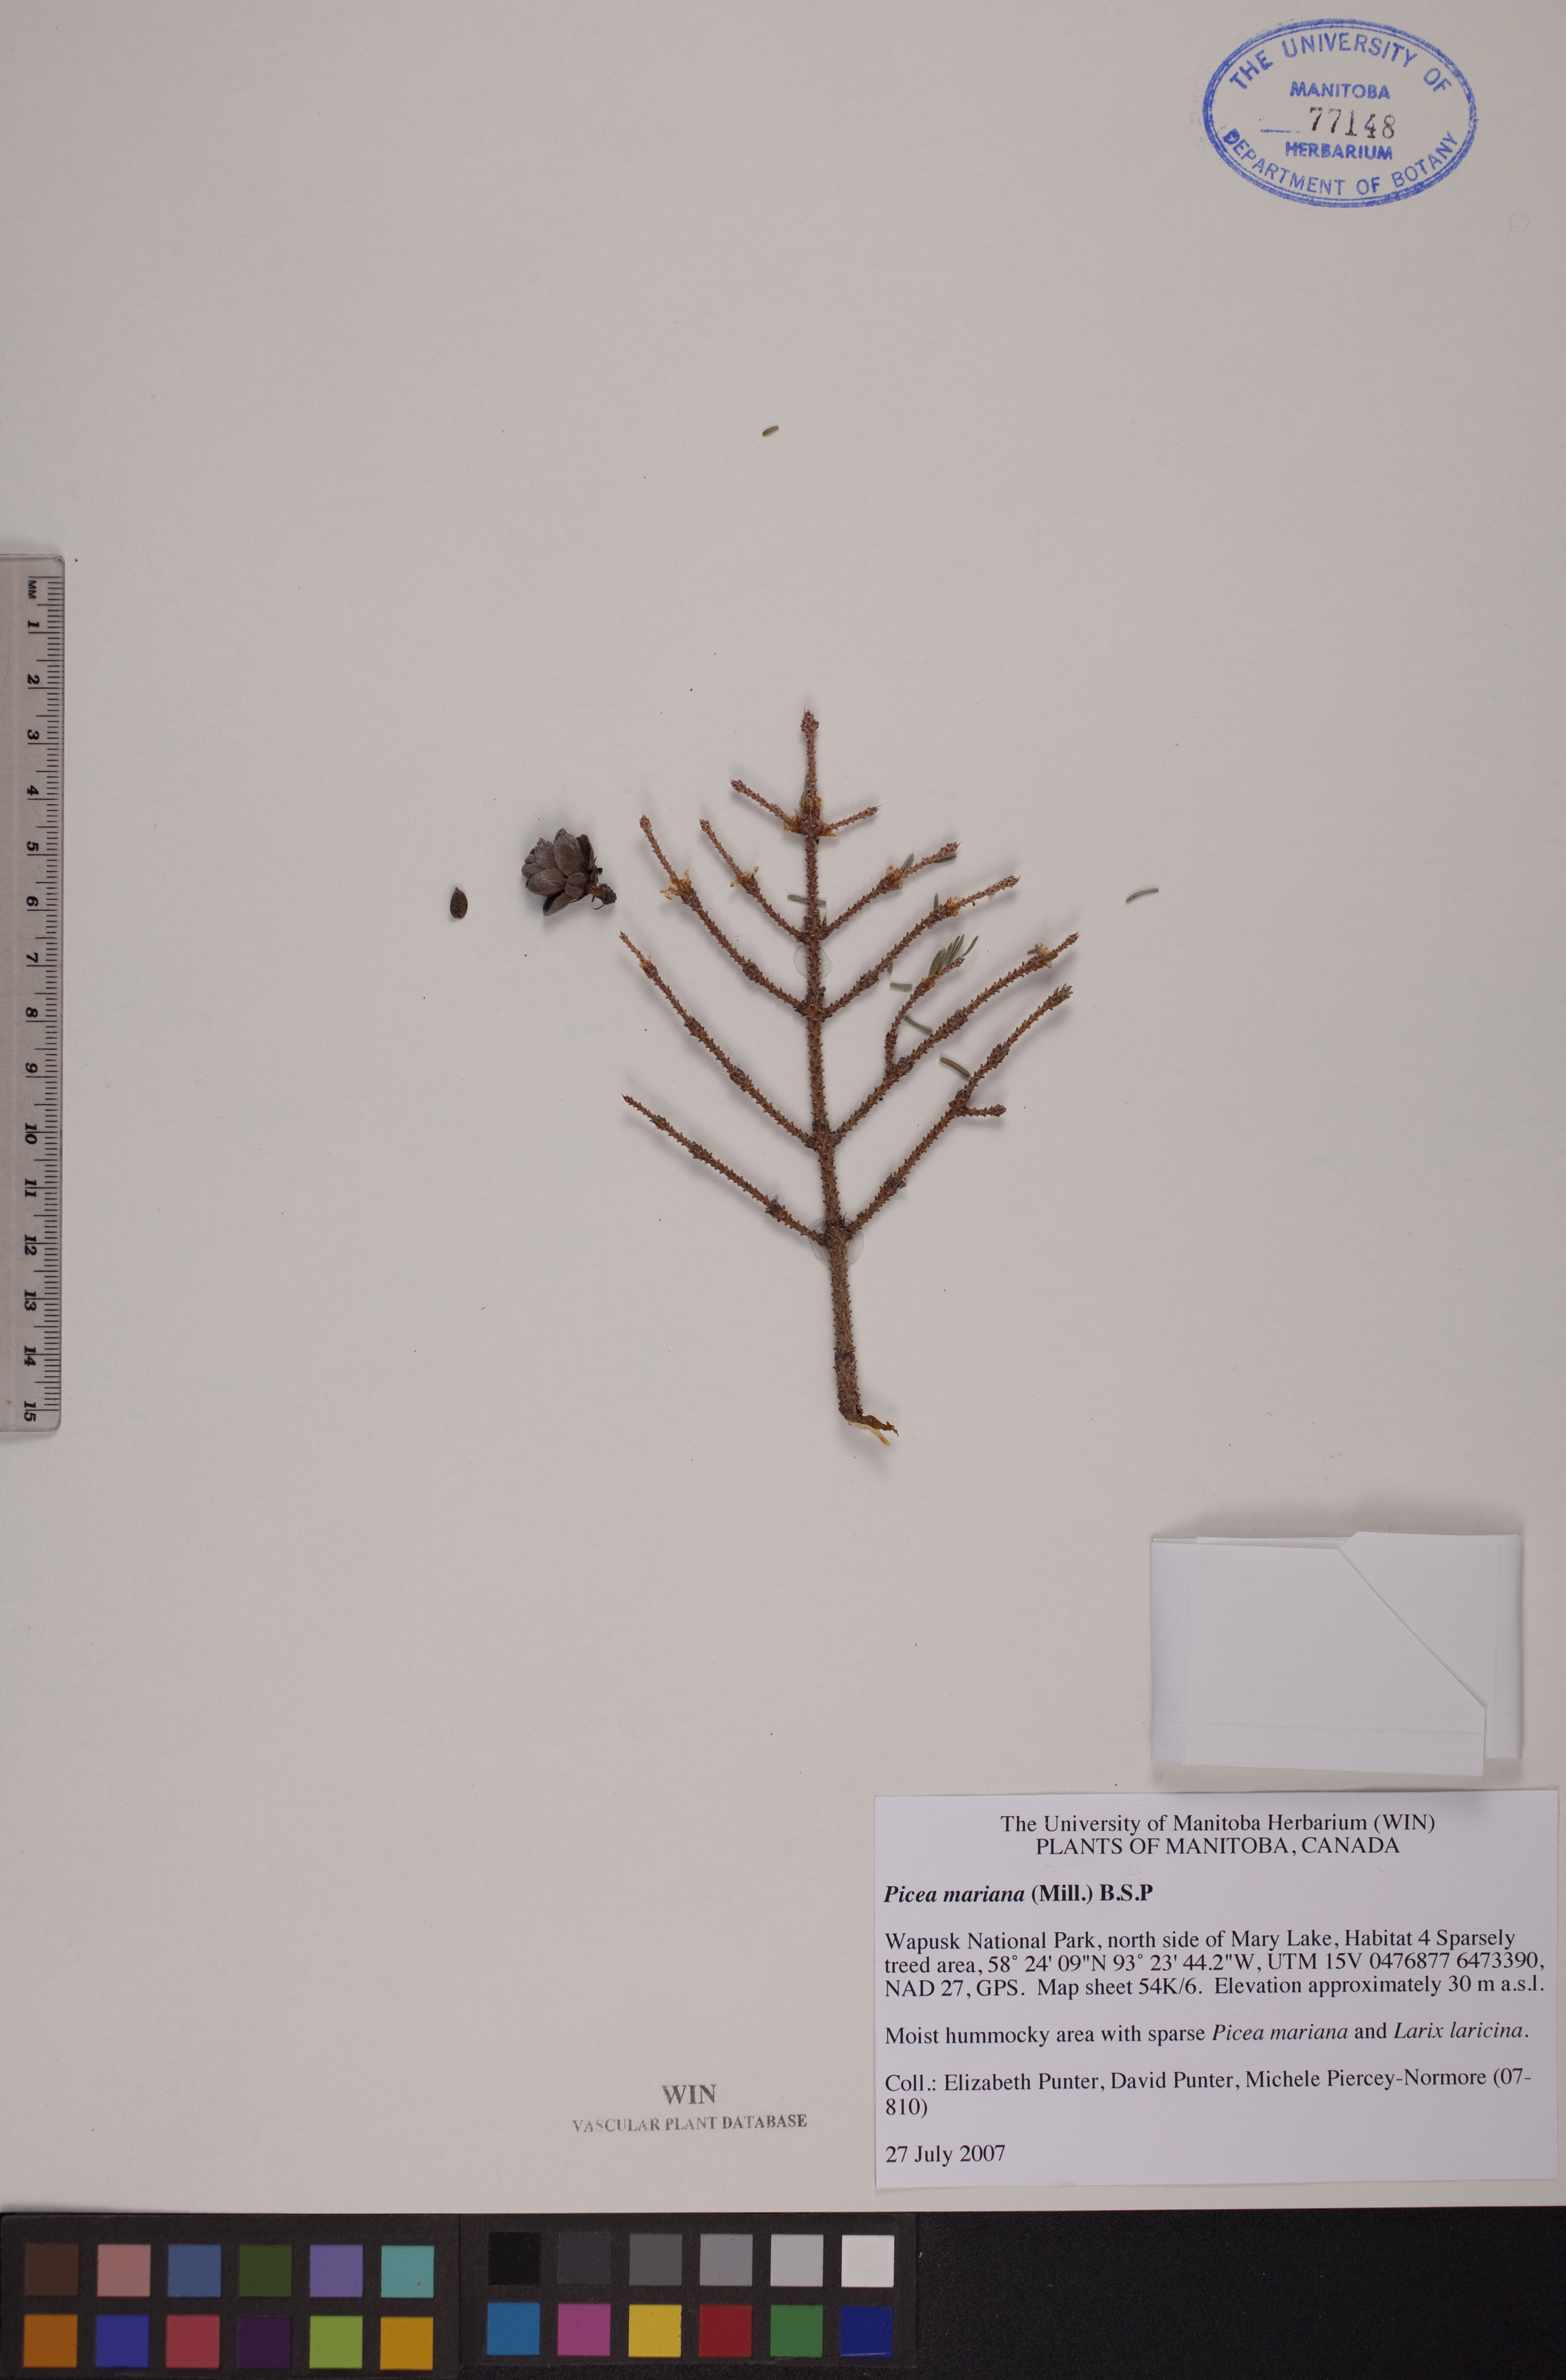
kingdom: Plantae
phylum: Tracheophyta
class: Pinopsida
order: Pinales
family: Pinaceae
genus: Picea
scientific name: Picea mariana
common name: Black spruce
